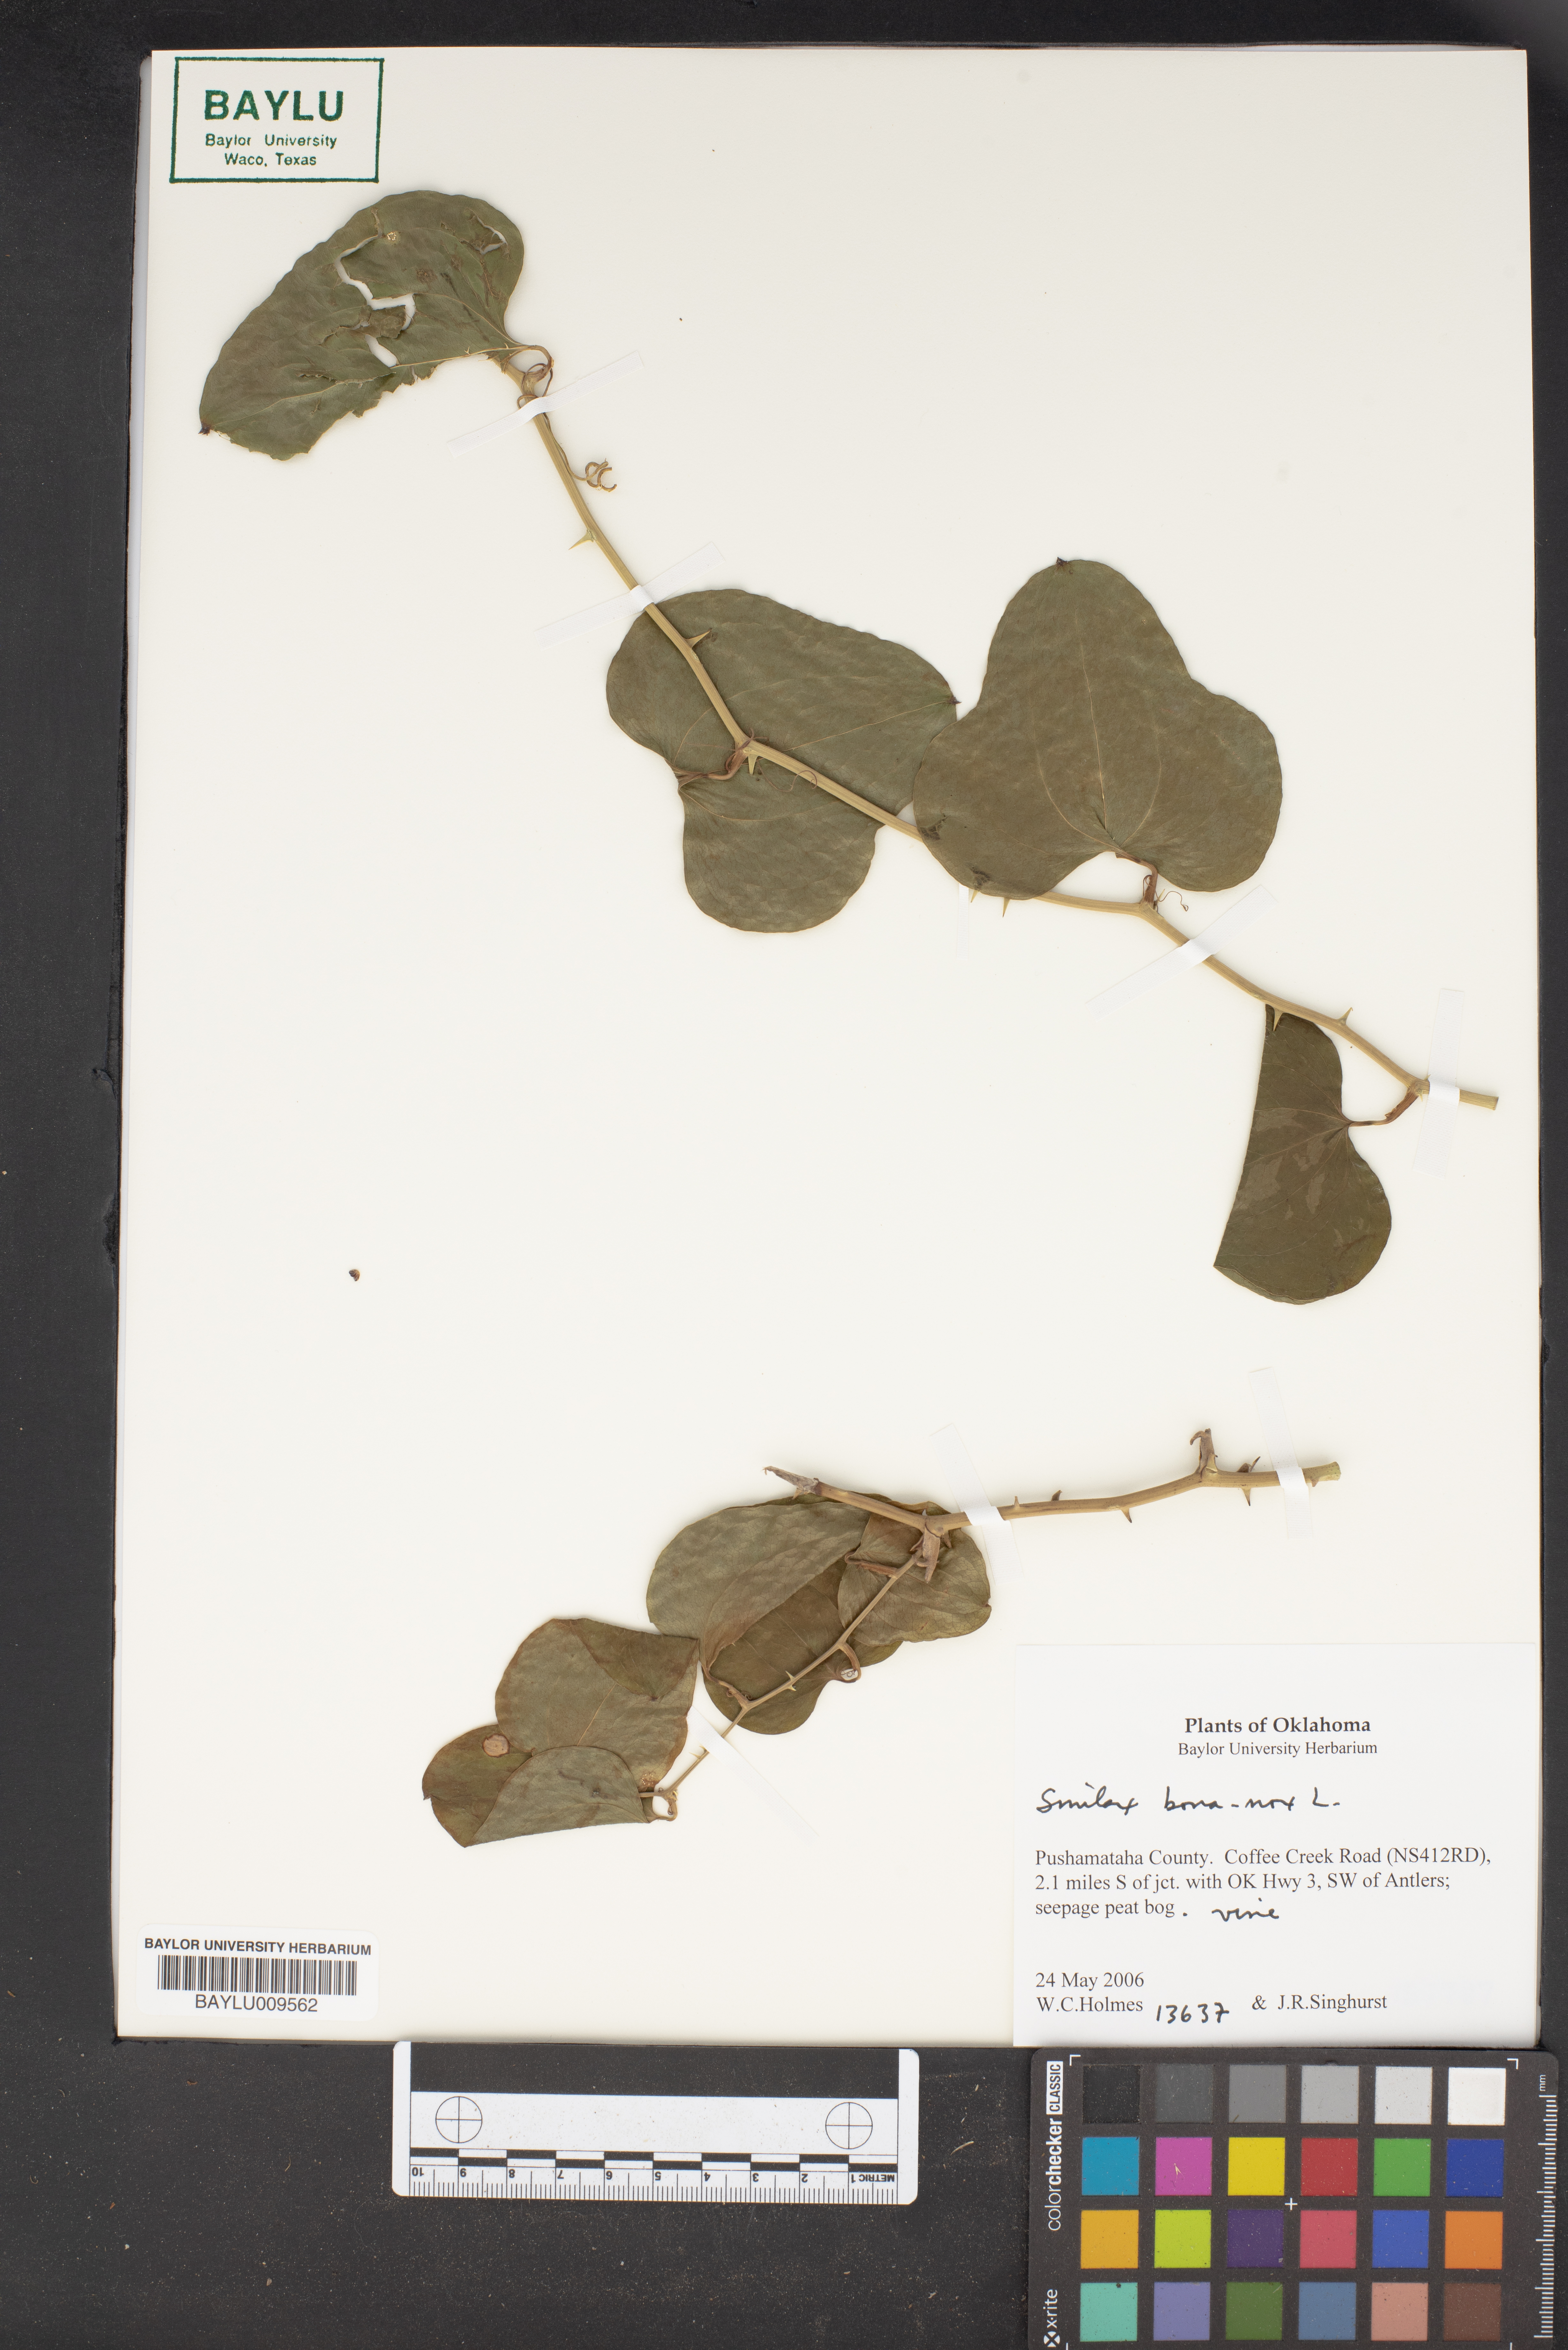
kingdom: Plantae
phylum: Tracheophyta
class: Liliopsida
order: Liliales
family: Smilacaceae
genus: Smilax
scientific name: Smilax bona-nox
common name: Catbrier
